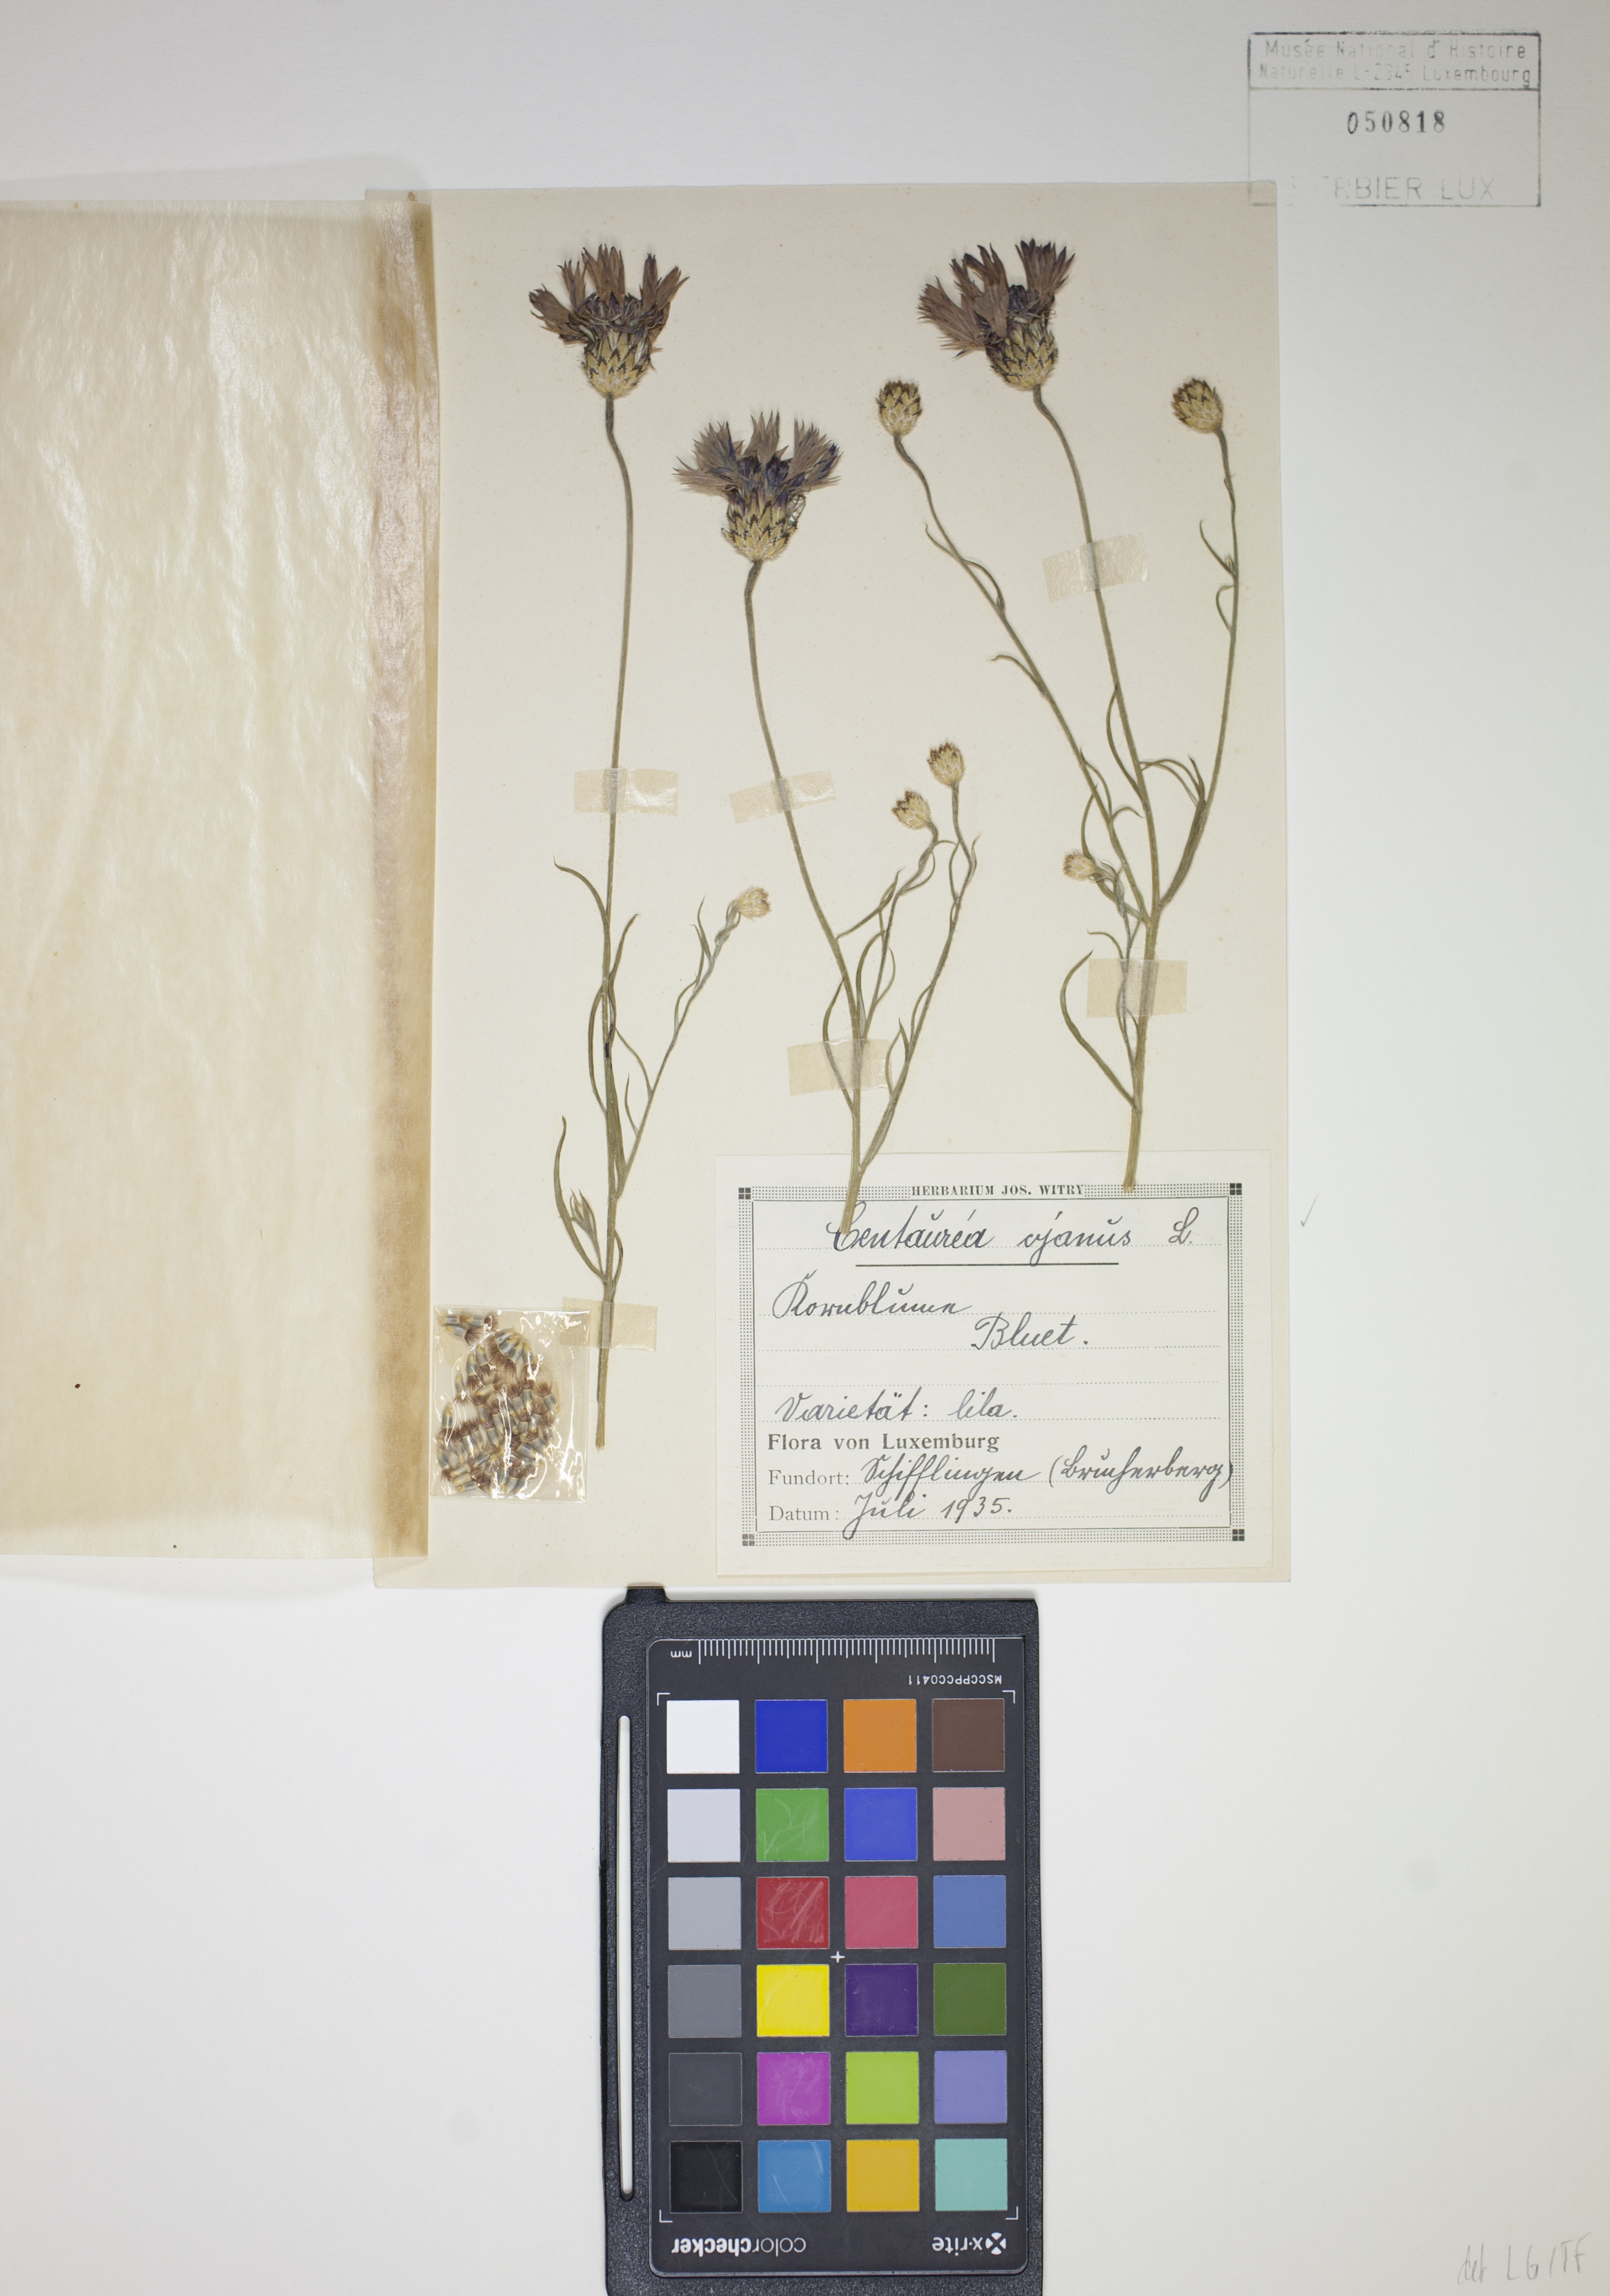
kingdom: Plantae
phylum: Tracheophyta
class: Magnoliopsida
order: Asterales
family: Asteraceae
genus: Centaurea
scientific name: Centaurea cyanus
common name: Cornflower
